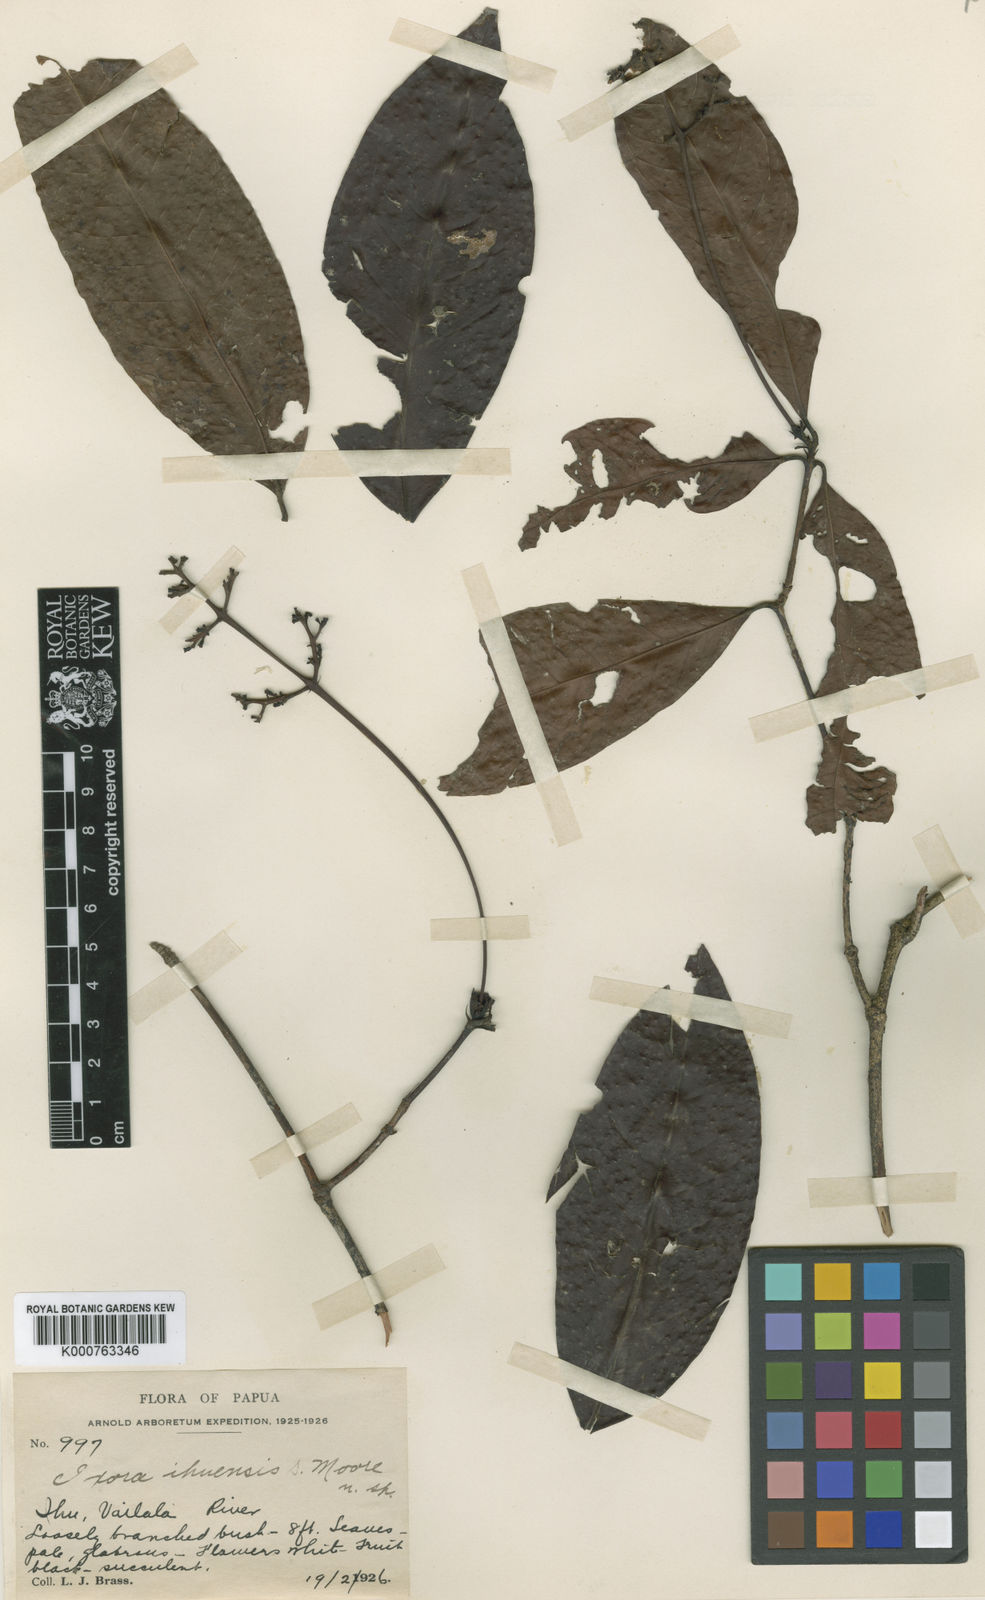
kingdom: Plantae
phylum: Tracheophyta
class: Magnoliopsida
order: Gentianales
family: Rubiaceae
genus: Ixora
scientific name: Ixora whitei
